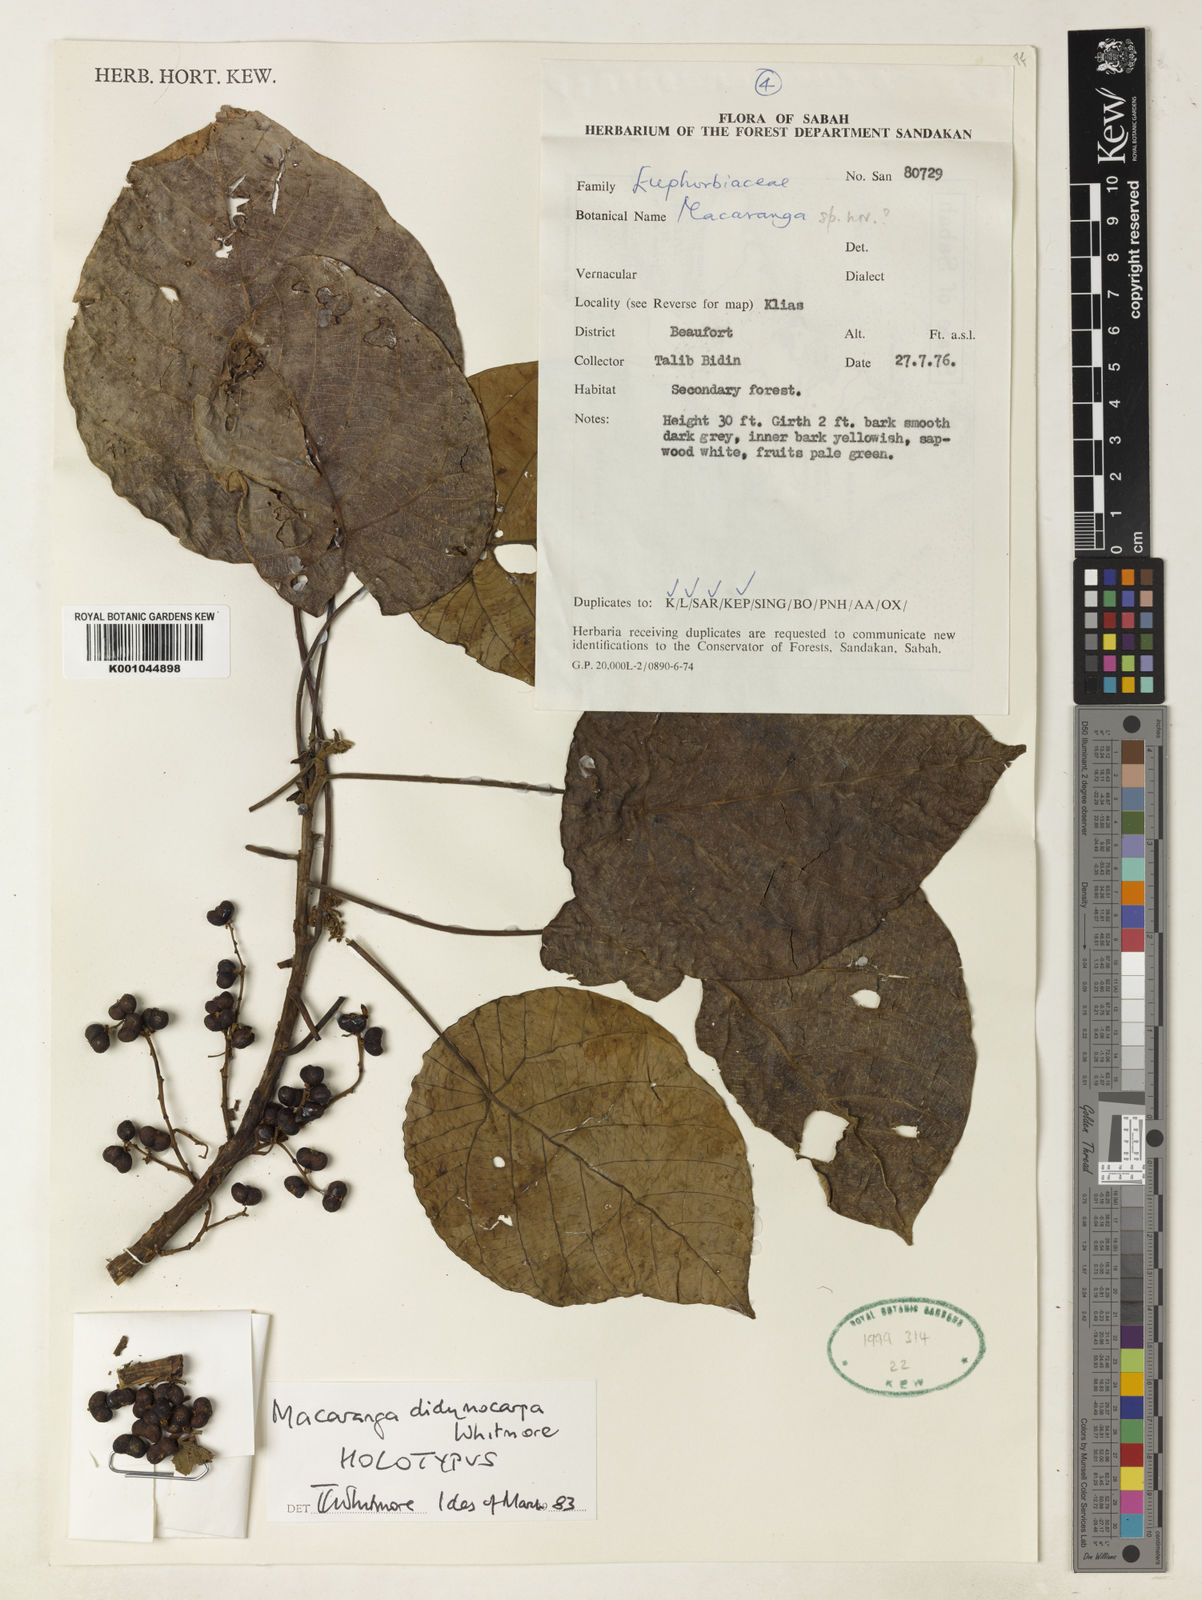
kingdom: Plantae
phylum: Tracheophyta
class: Magnoliopsida
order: Malpighiales
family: Euphorbiaceae
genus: Macaranga
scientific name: Macaranga didymocarpa
